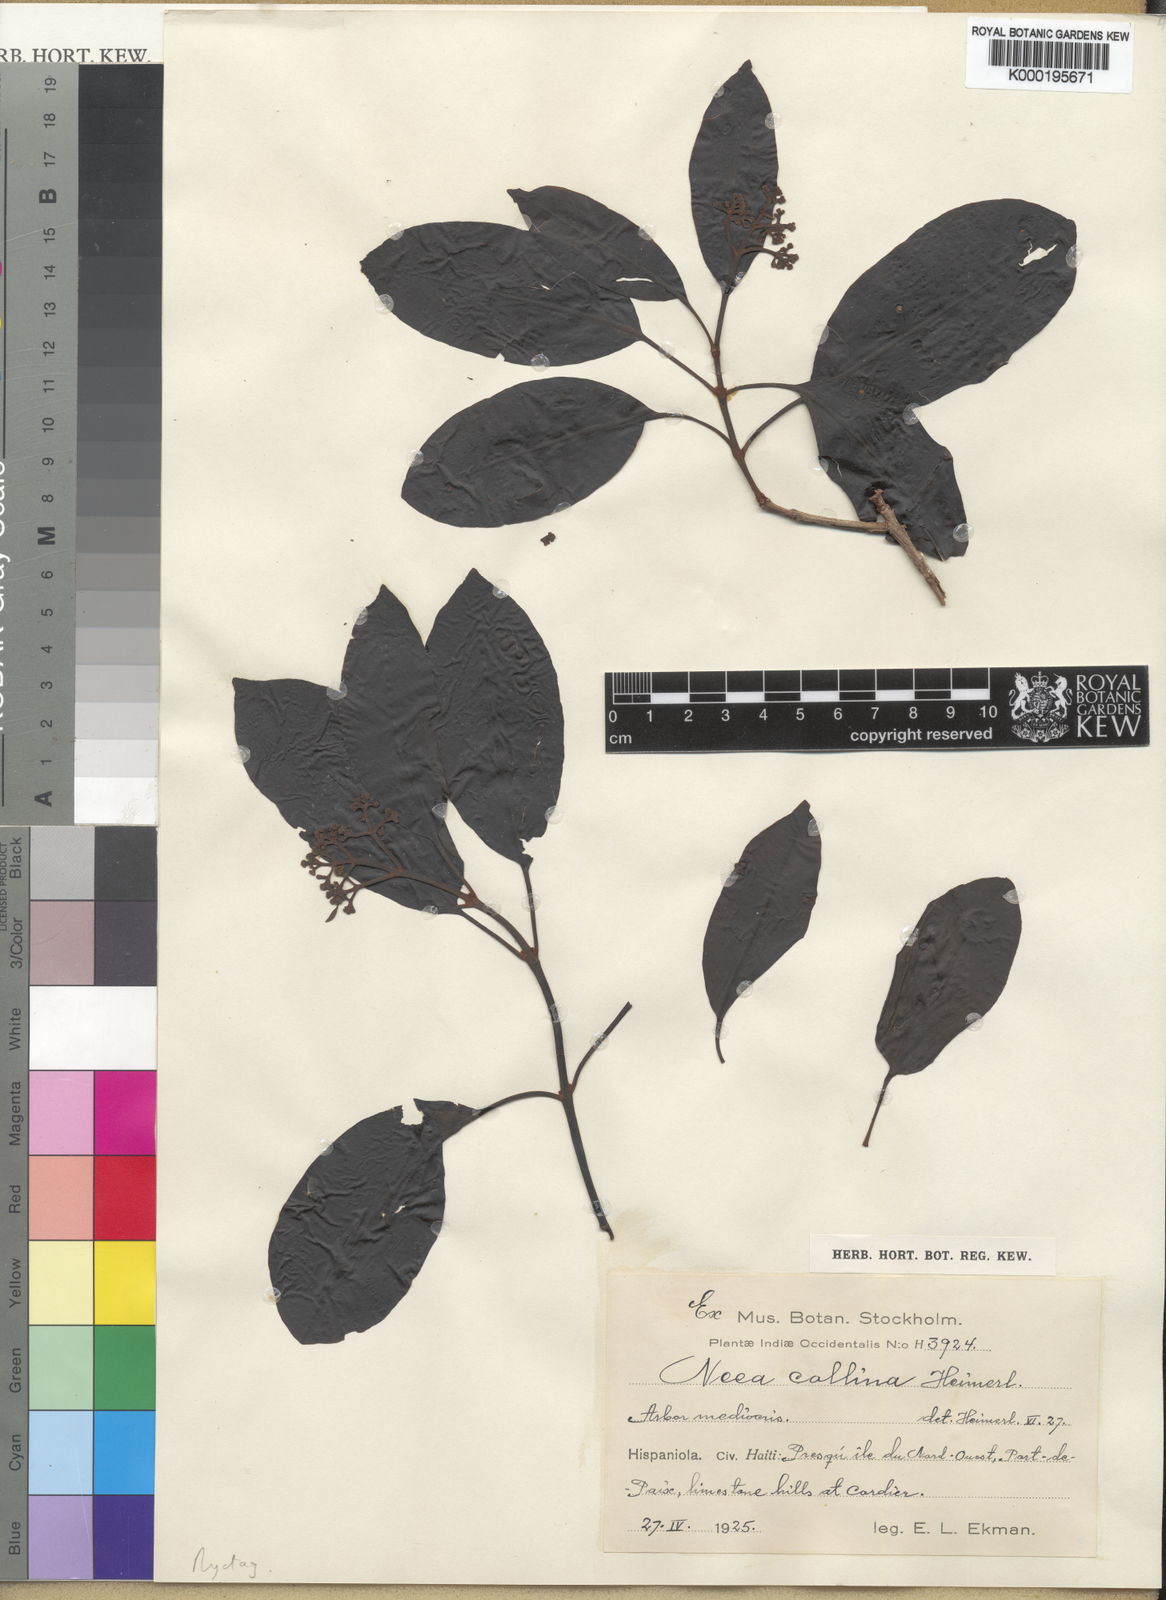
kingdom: Plantae
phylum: Tracheophyta
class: Magnoliopsida
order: Caryophyllales
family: Nyctaginaceae
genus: Neea
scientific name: Neea collina
